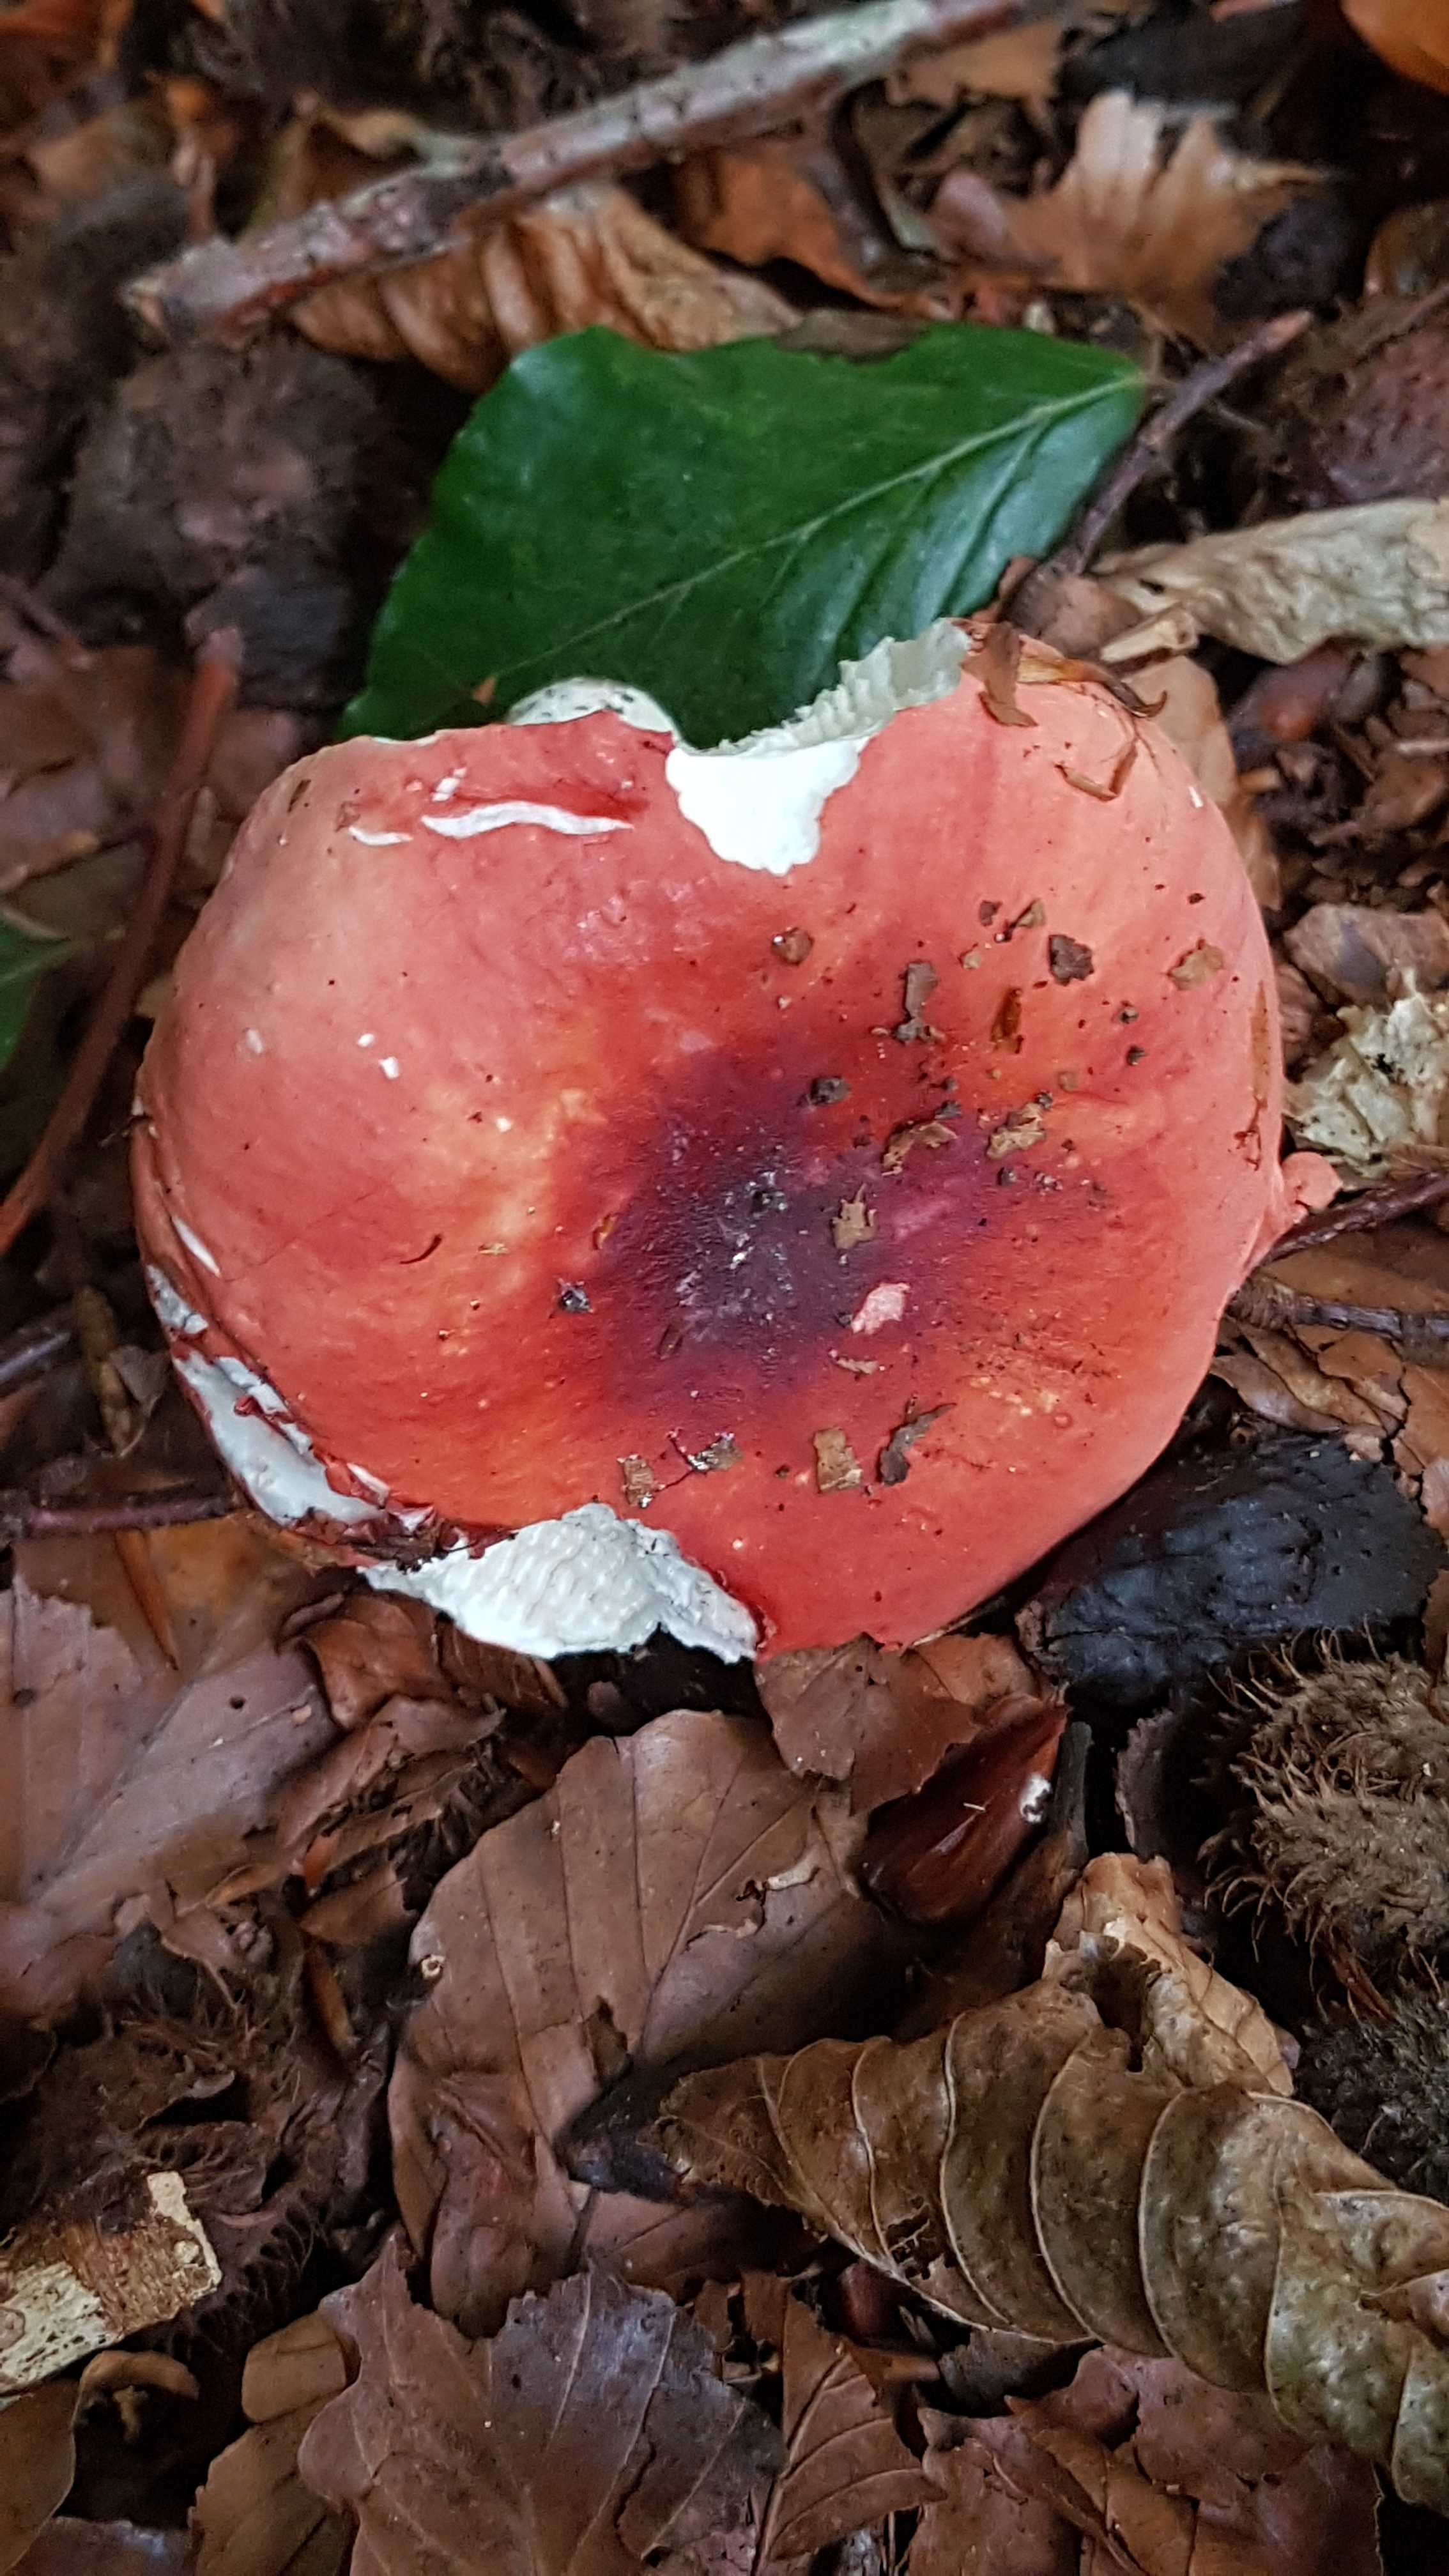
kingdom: Fungi
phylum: Basidiomycota
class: Agaricomycetes
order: Russulales
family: Russulaceae
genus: Russula
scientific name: Russula
